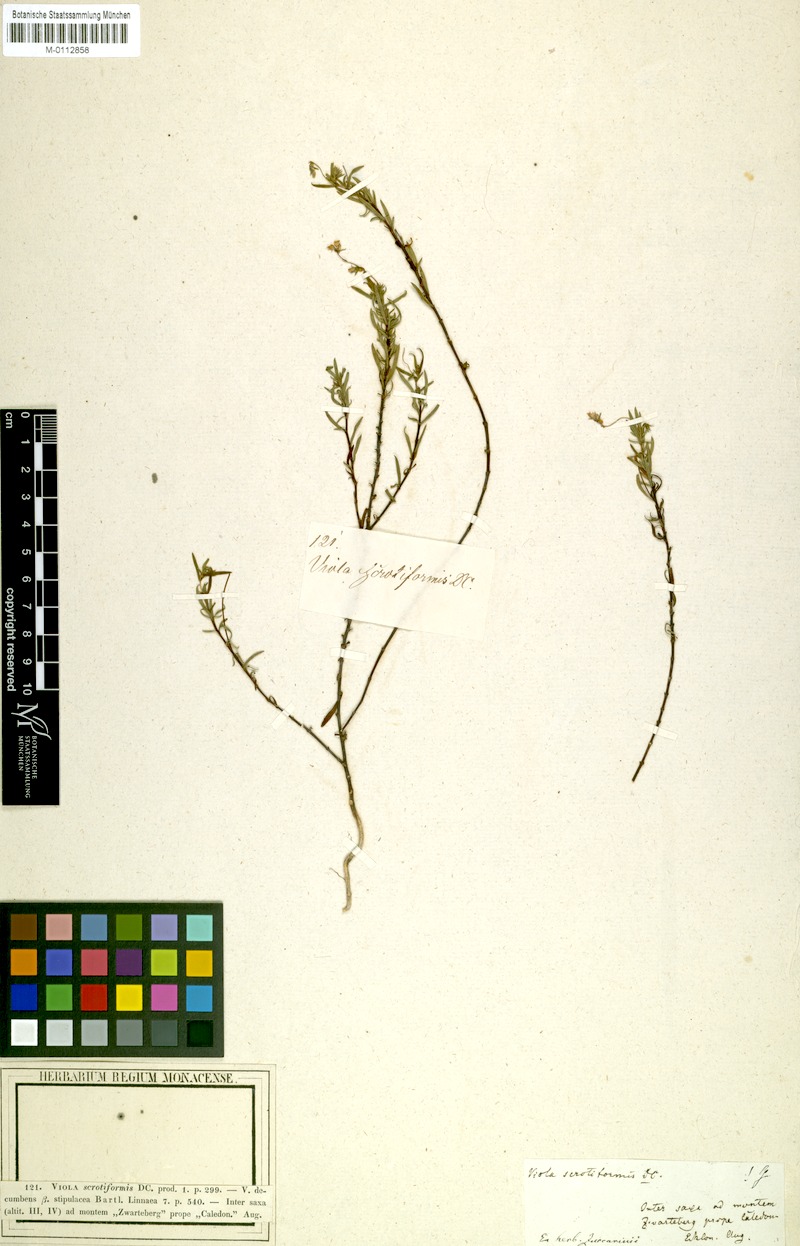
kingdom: Plantae
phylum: Tracheophyta
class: Magnoliopsida
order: Malpighiales
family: Violaceae
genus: Viola
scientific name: Viola decumbens
